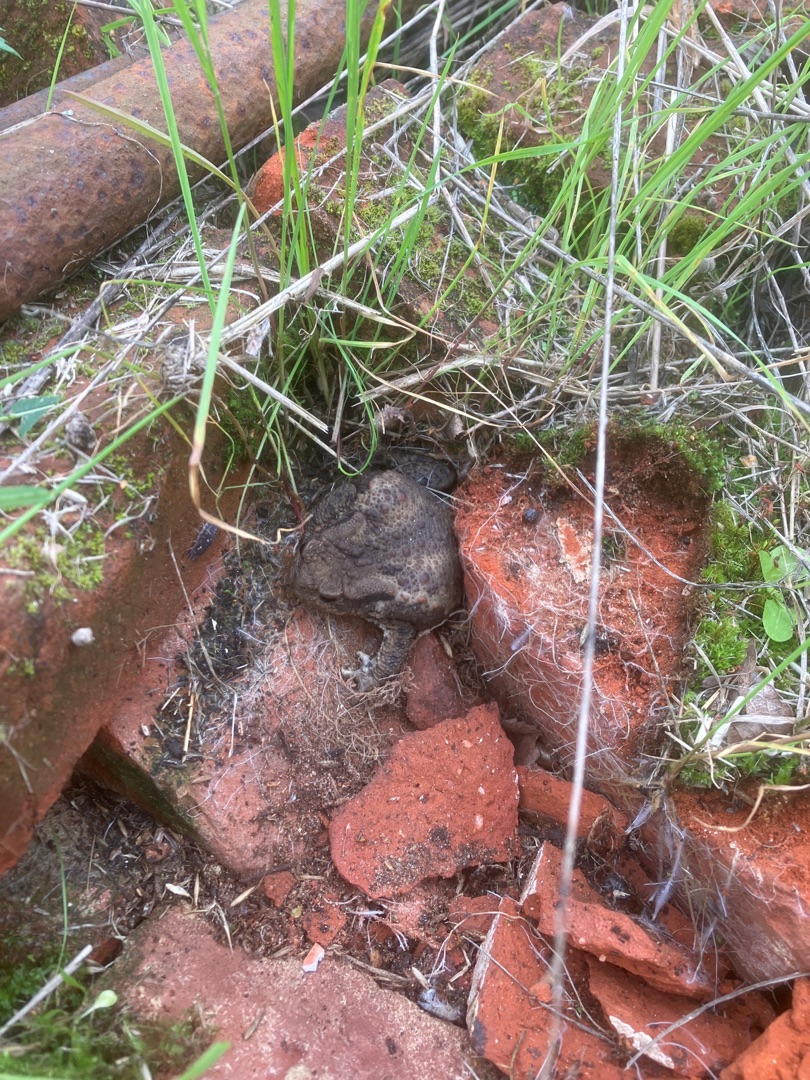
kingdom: Animalia
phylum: Chordata
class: Amphibia
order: Anura
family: Bufonidae
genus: Bufo
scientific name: Bufo bufo
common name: Skrubtudse
